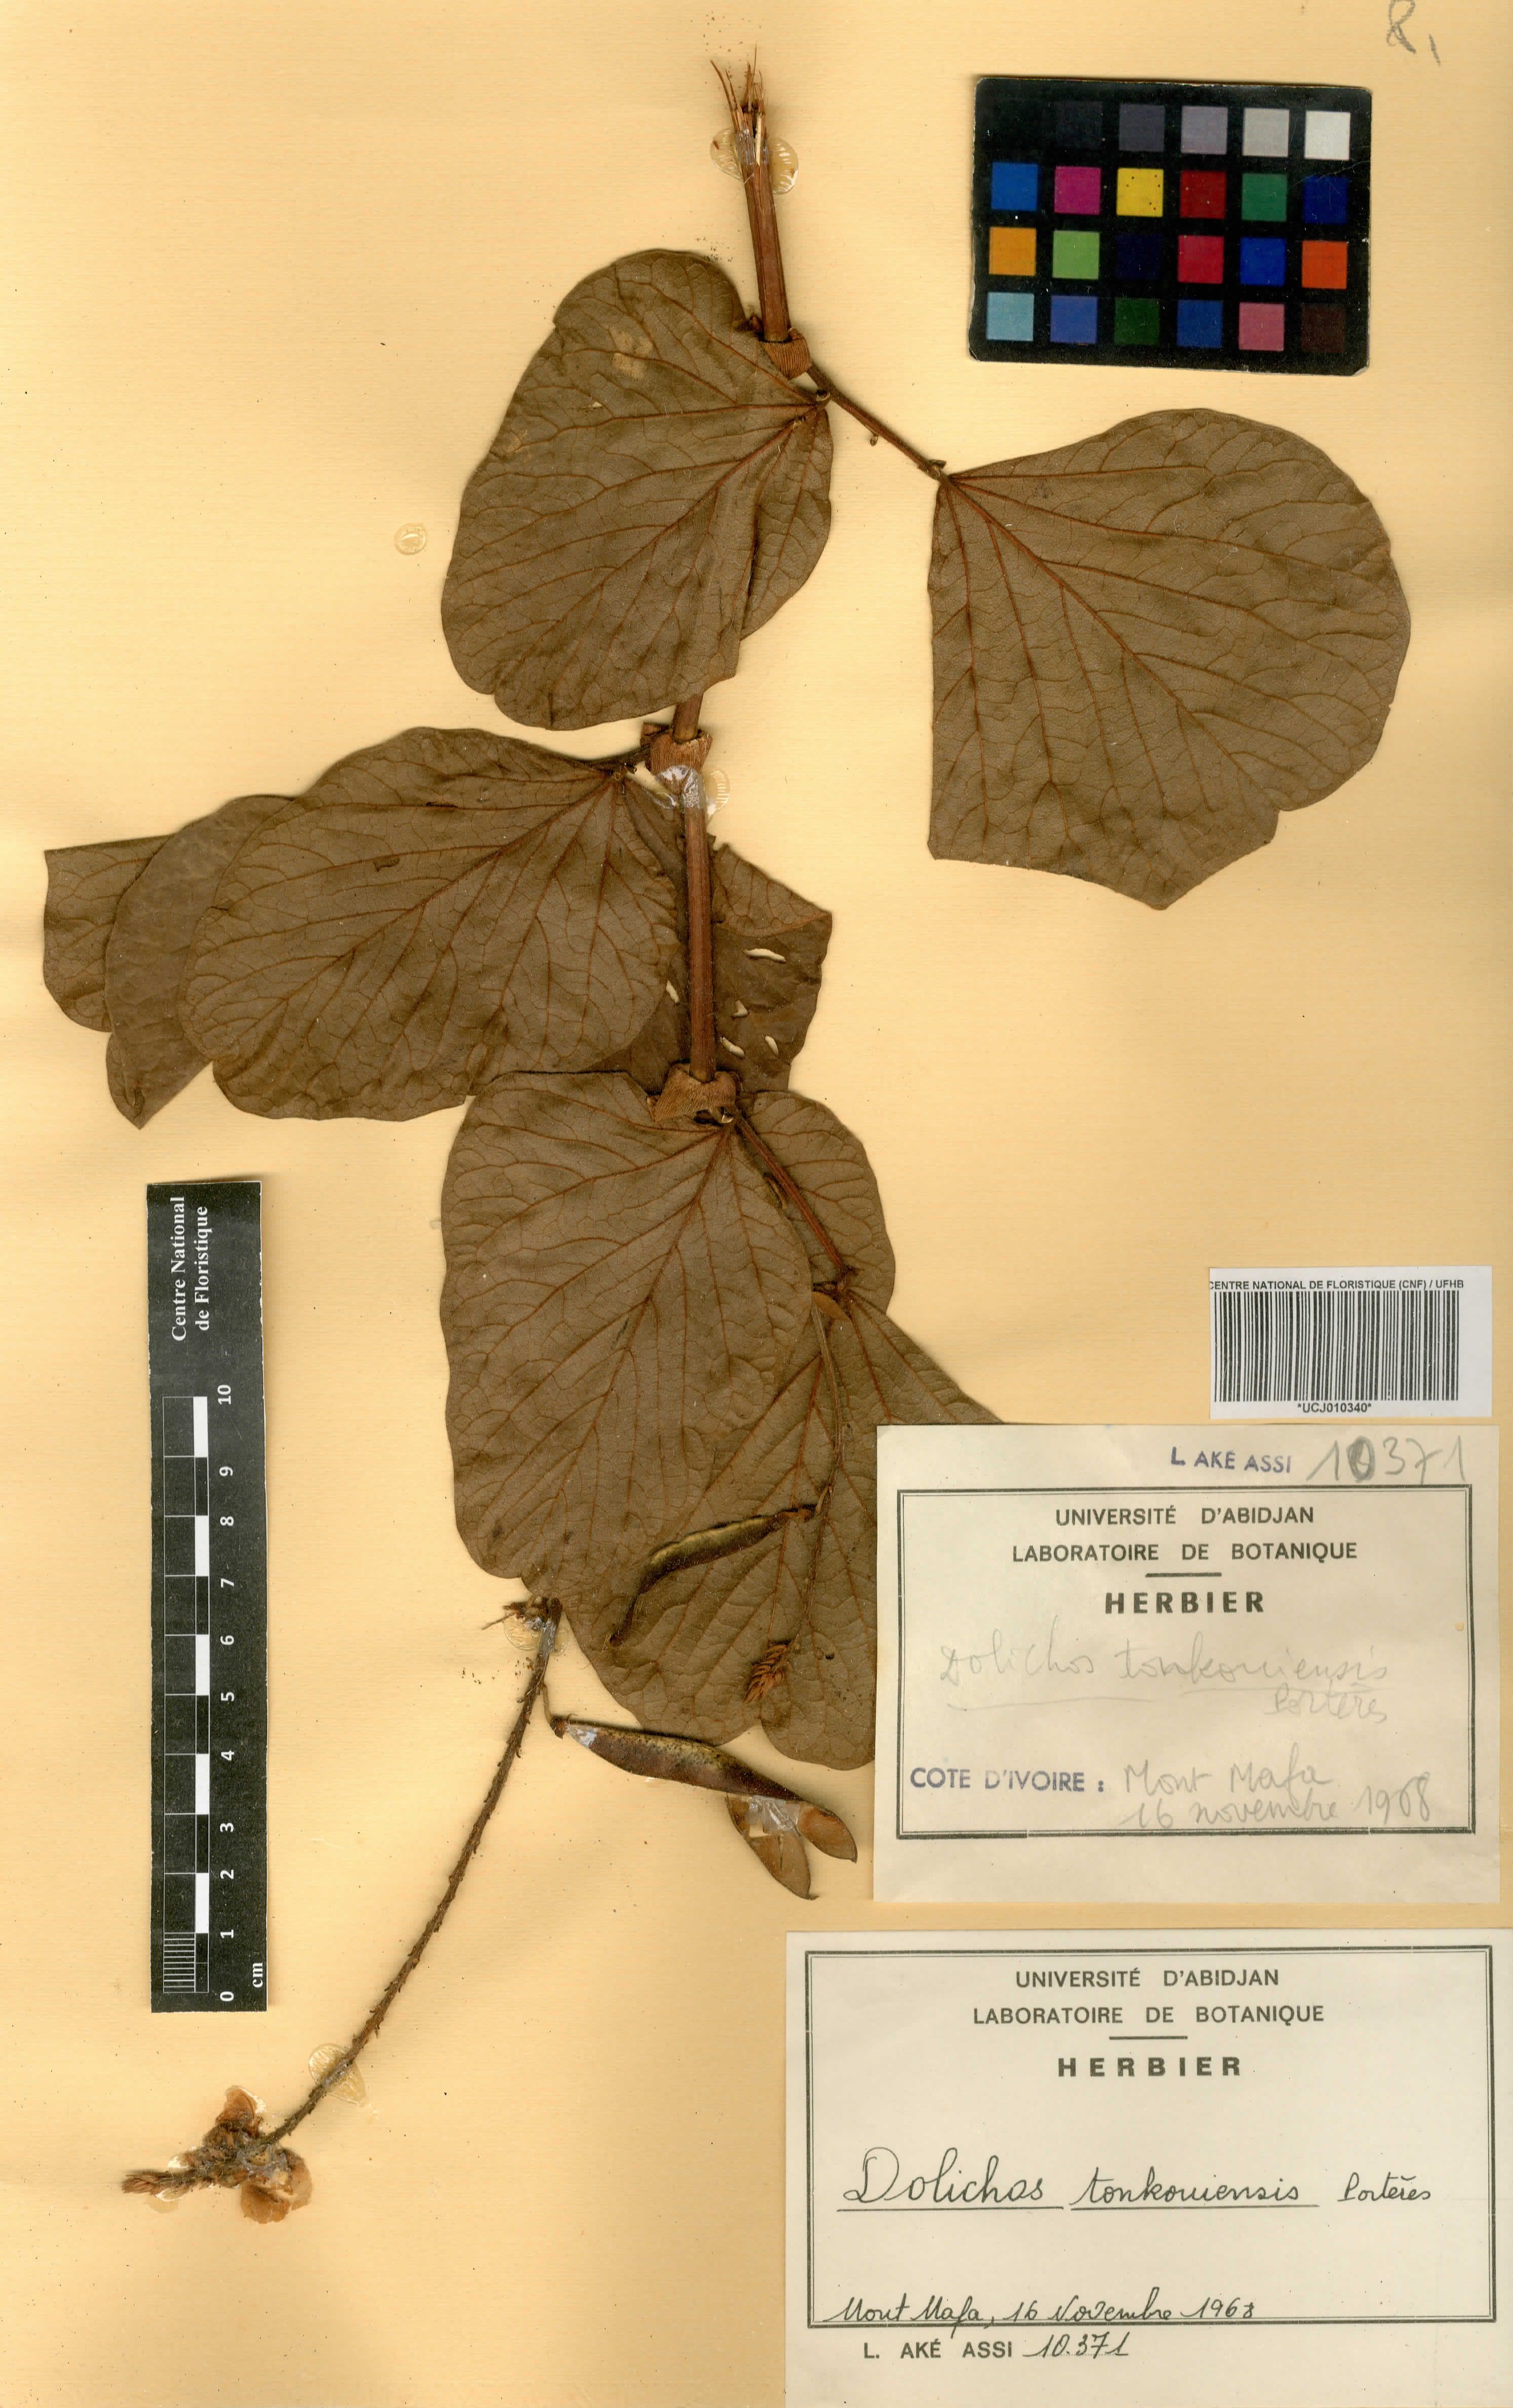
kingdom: Plantae
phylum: Tracheophyta
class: Magnoliopsida
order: Fabales
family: Fabaceae
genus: Dolichos
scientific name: Dolichos tonkouiensis
